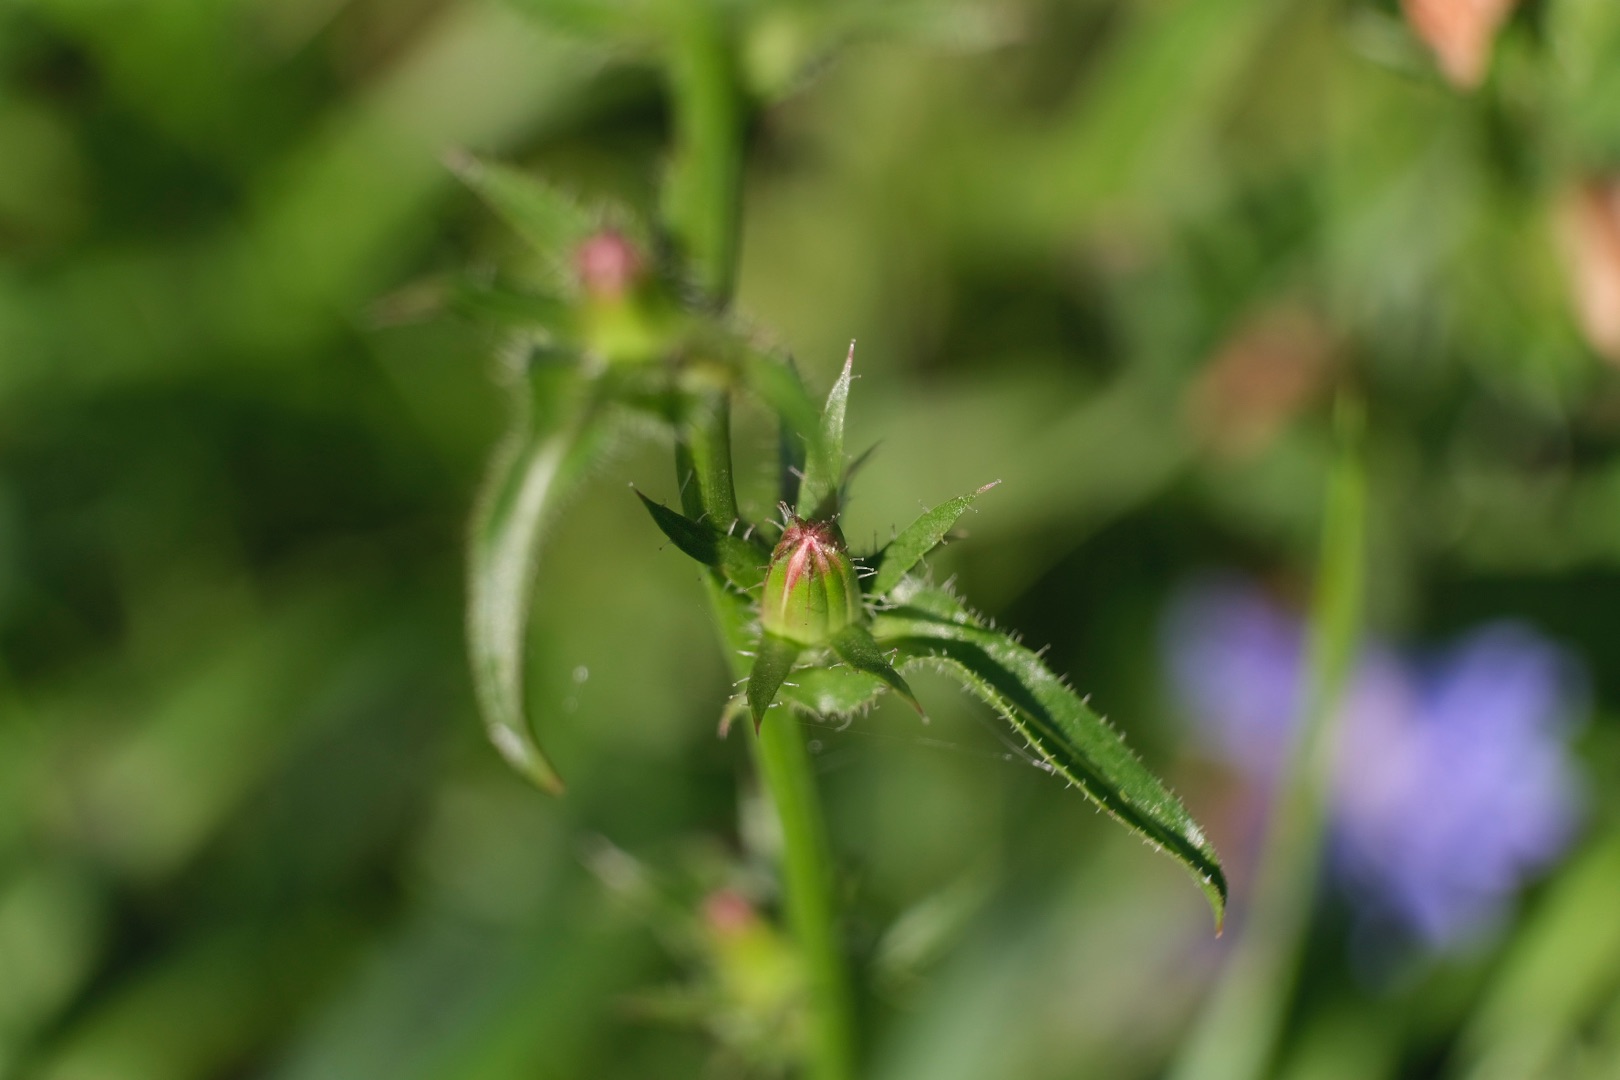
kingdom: Plantae
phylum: Tracheophyta
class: Magnoliopsida
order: Asterales
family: Asteraceae
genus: Cichorium
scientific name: Cichorium intybus
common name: Cikorie
